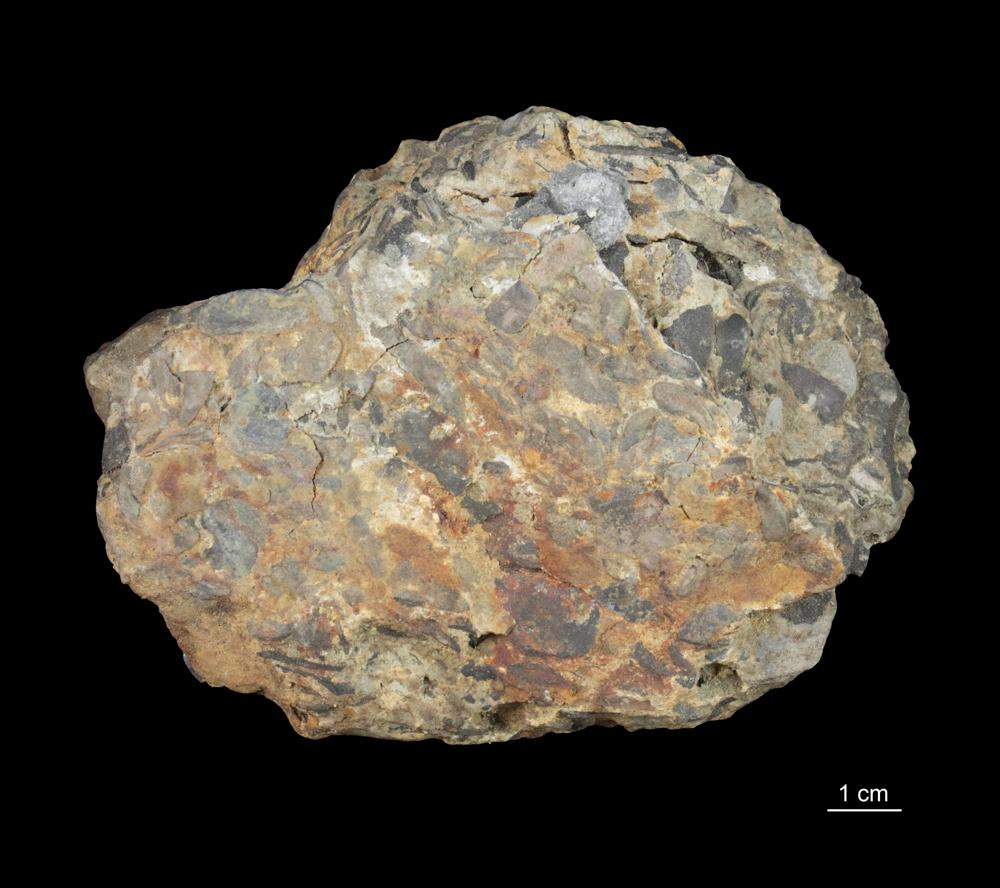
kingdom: Animalia
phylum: Brachiopoda
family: Paterinidae
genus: Mickwitzia
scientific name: Mickwitzia
